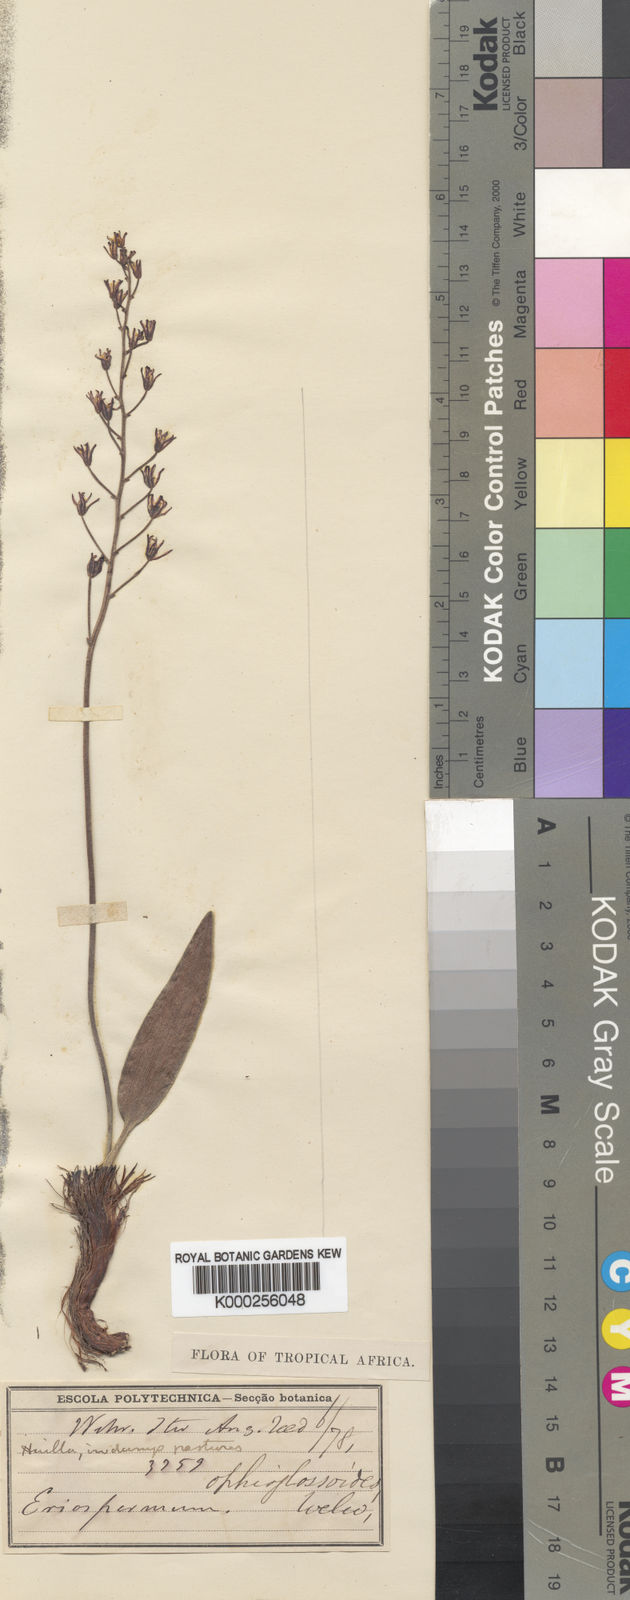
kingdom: Plantae
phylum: Tracheophyta
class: Liliopsida
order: Asparagales
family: Asparagaceae
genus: Eriospermum
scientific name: Eriospermum ophioglossoides
